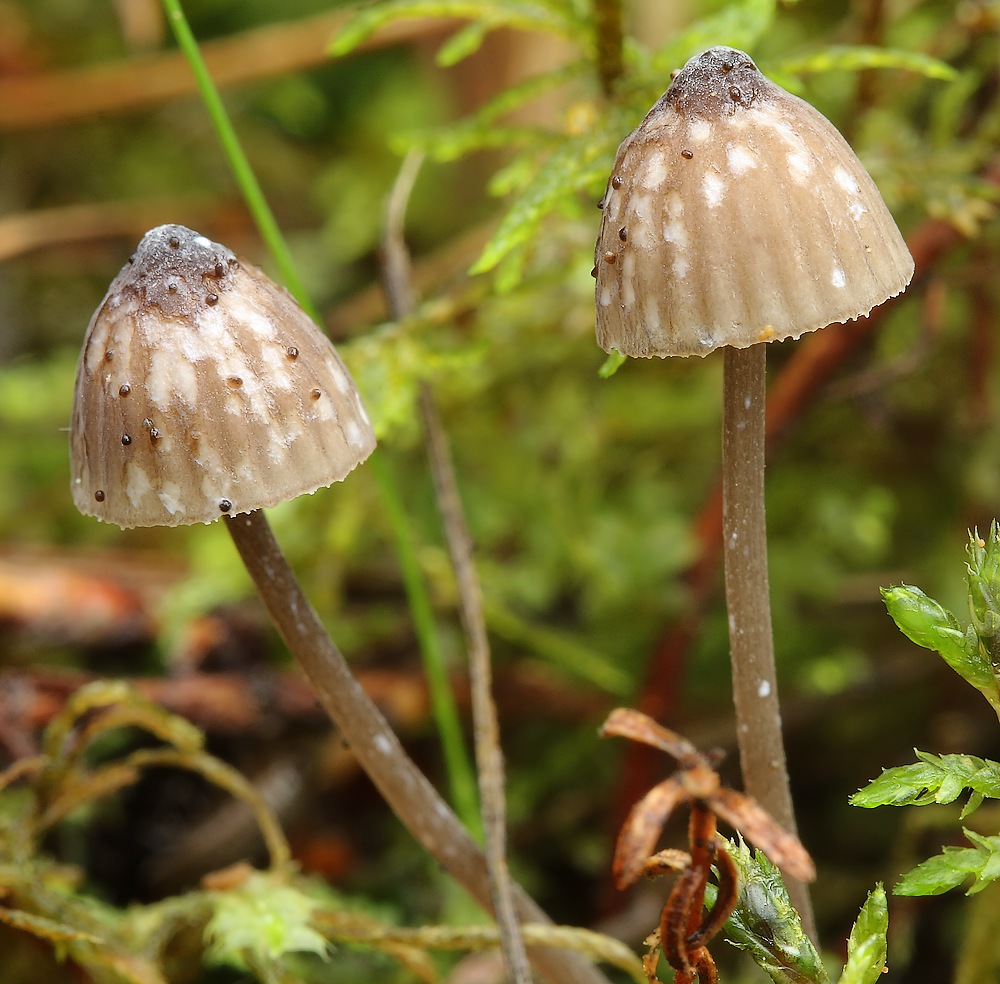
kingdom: Fungi
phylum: Basidiomycota
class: Agaricomycetes
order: Agaricales
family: Mycenaceae
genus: Mycena
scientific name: Mycena galopus
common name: hvidmælket huesvamp
